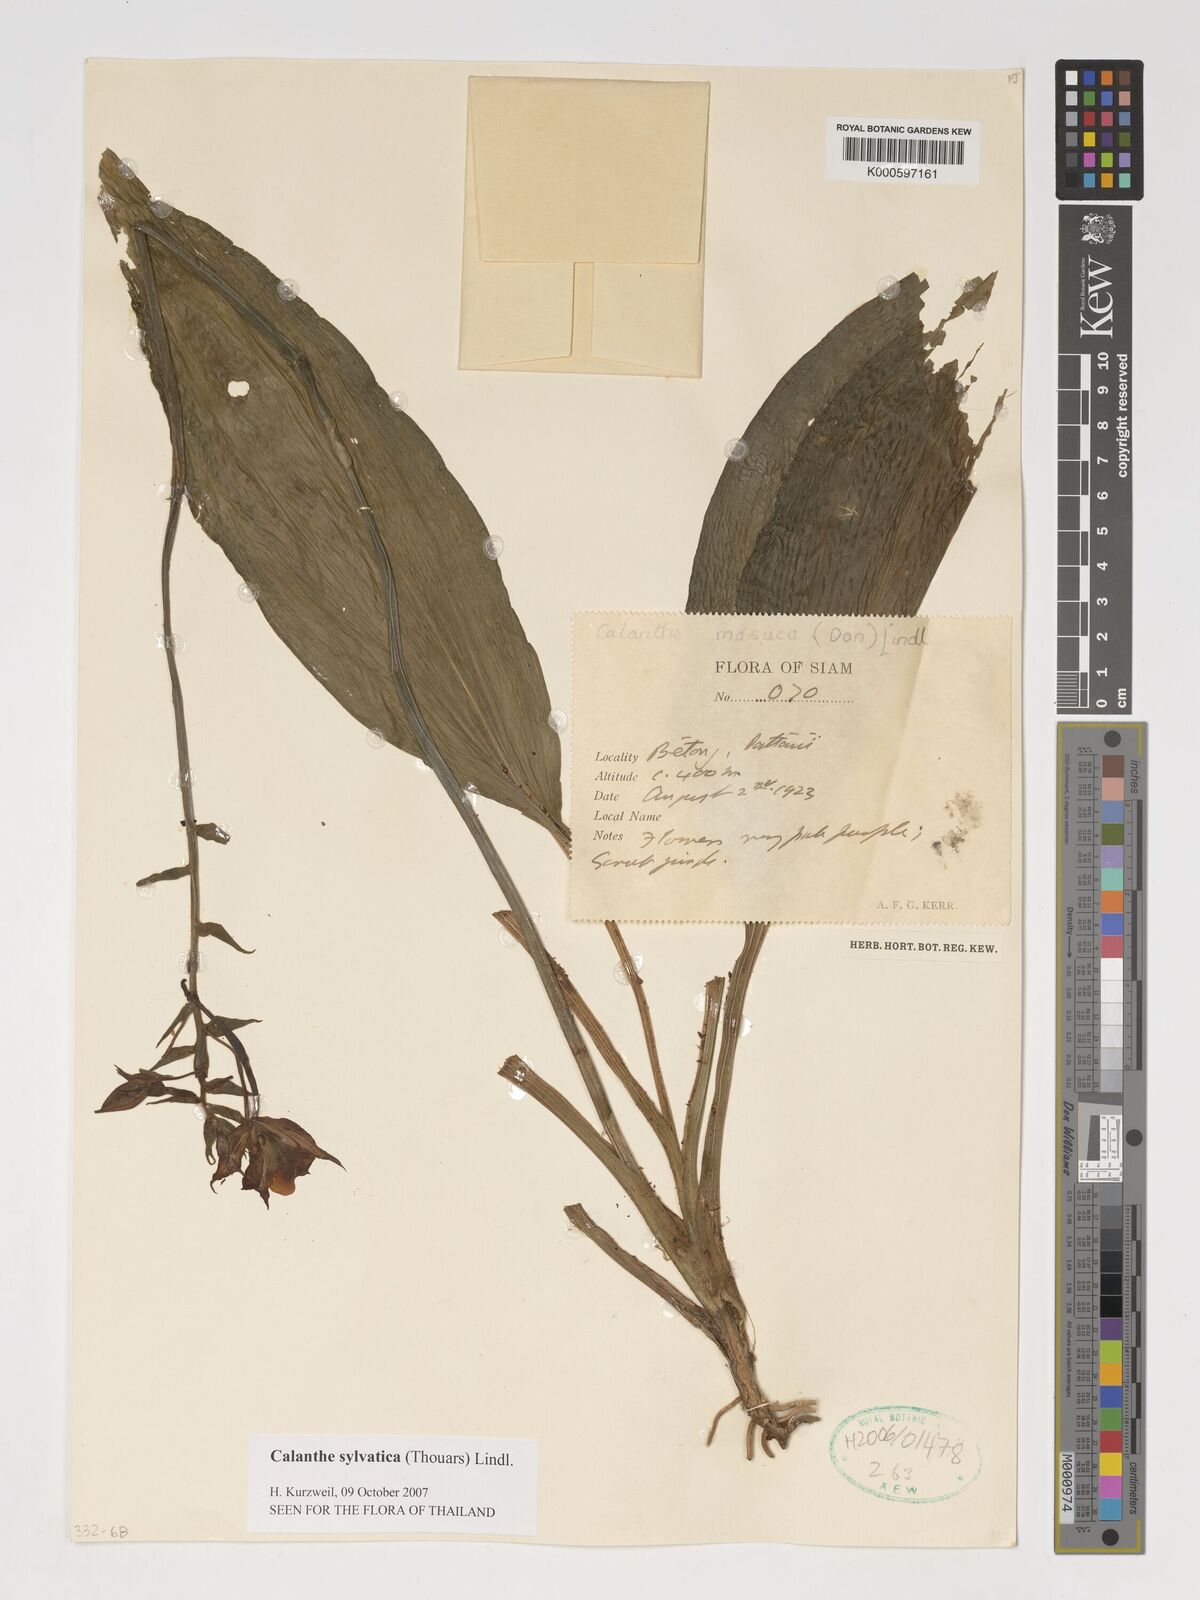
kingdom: Plantae
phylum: Tracheophyta
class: Liliopsida
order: Asparagales
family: Orchidaceae
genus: Calanthe
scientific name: Calanthe sylvatica
